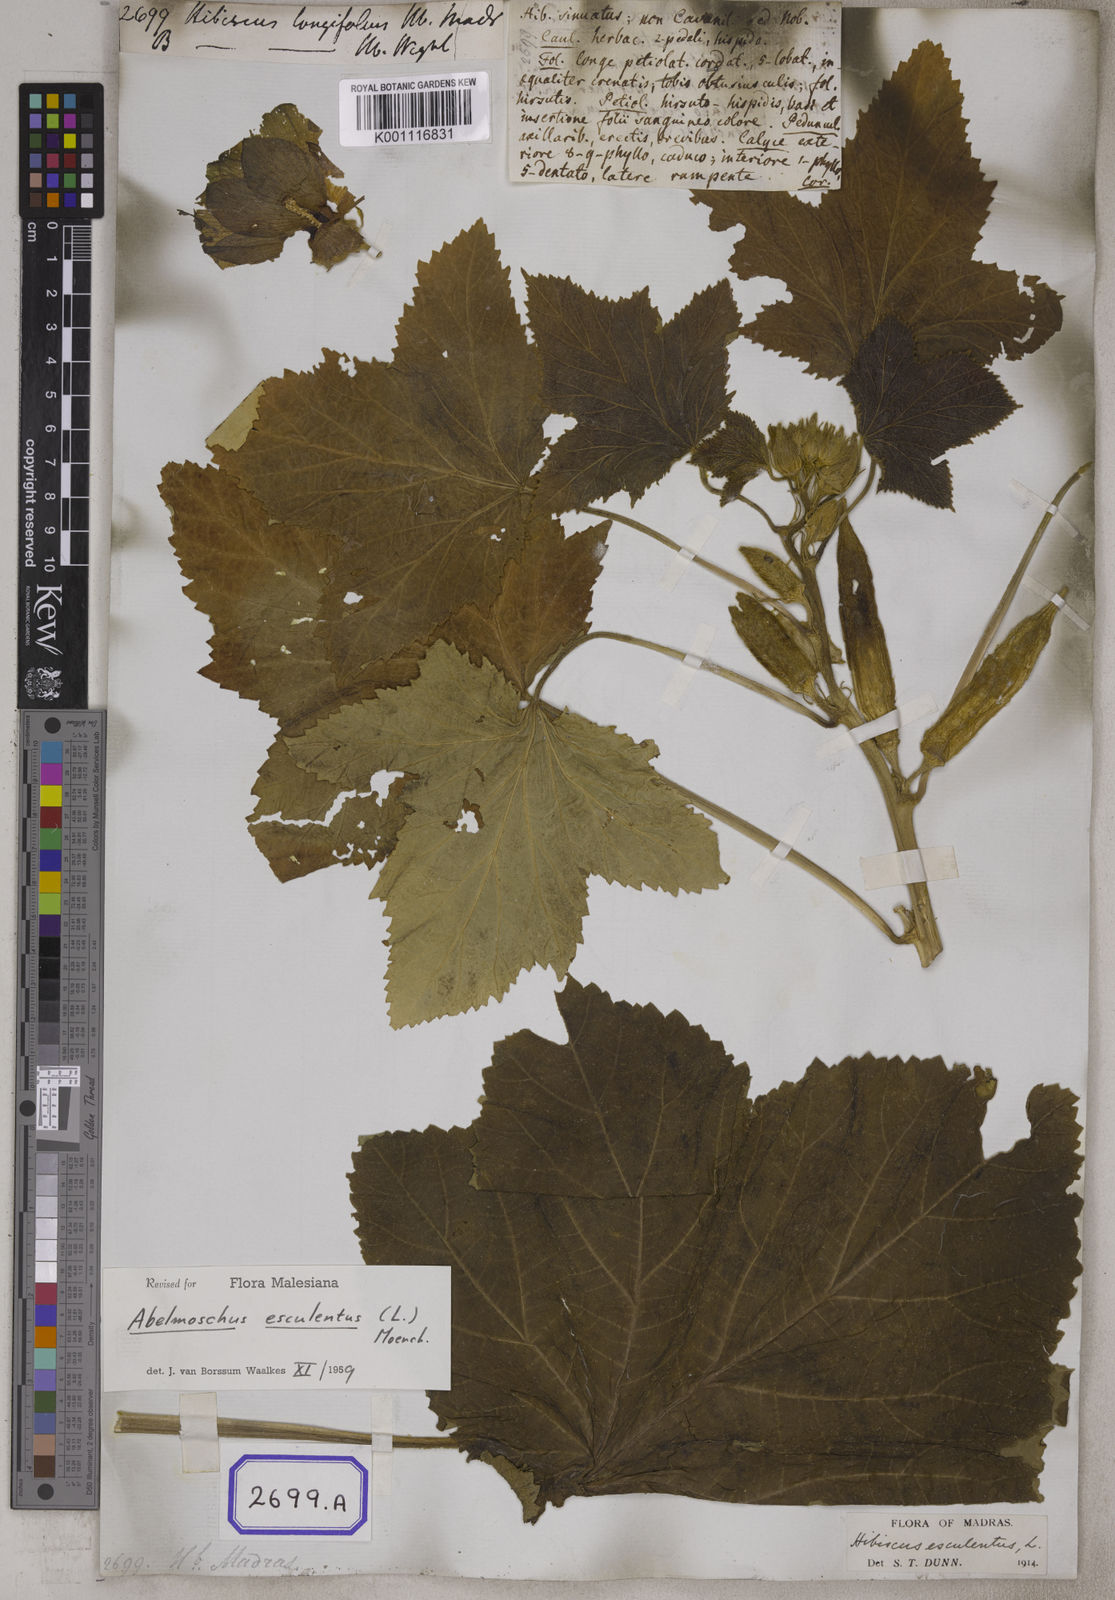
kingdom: Plantae
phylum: Tracheophyta
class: Magnoliopsida
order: Malvales
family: Malvaceae
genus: Abelmoschus
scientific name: Abelmoschus esculentus
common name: Okra
